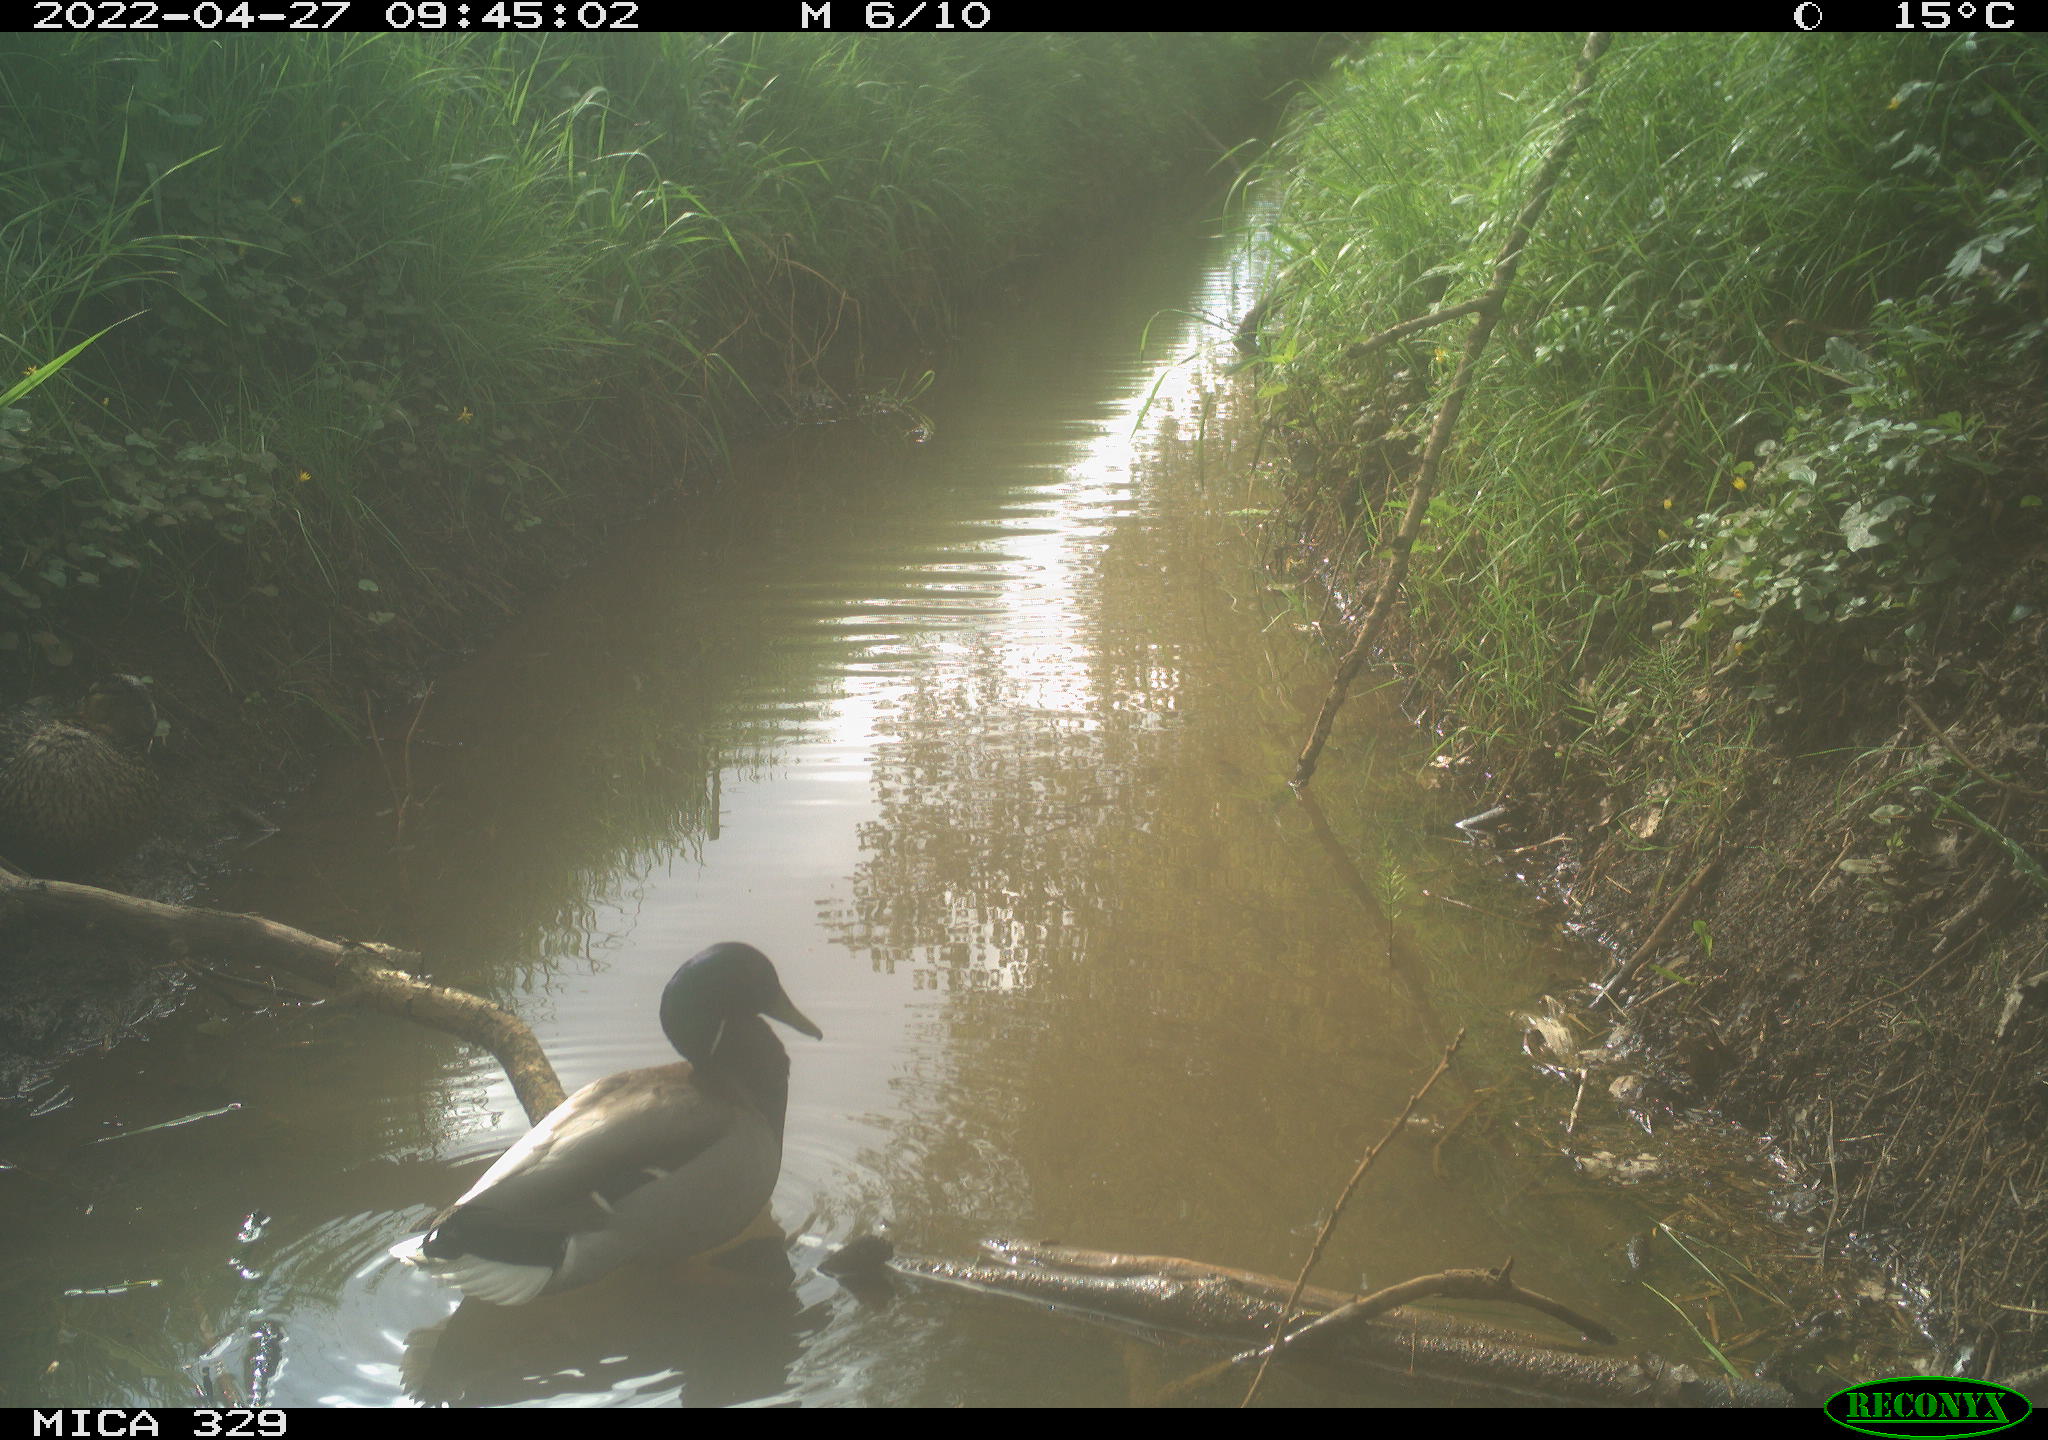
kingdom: Animalia
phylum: Chordata
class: Aves
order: Anseriformes
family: Anatidae
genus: Anas
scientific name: Anas platyrhynchos
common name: Mallard
